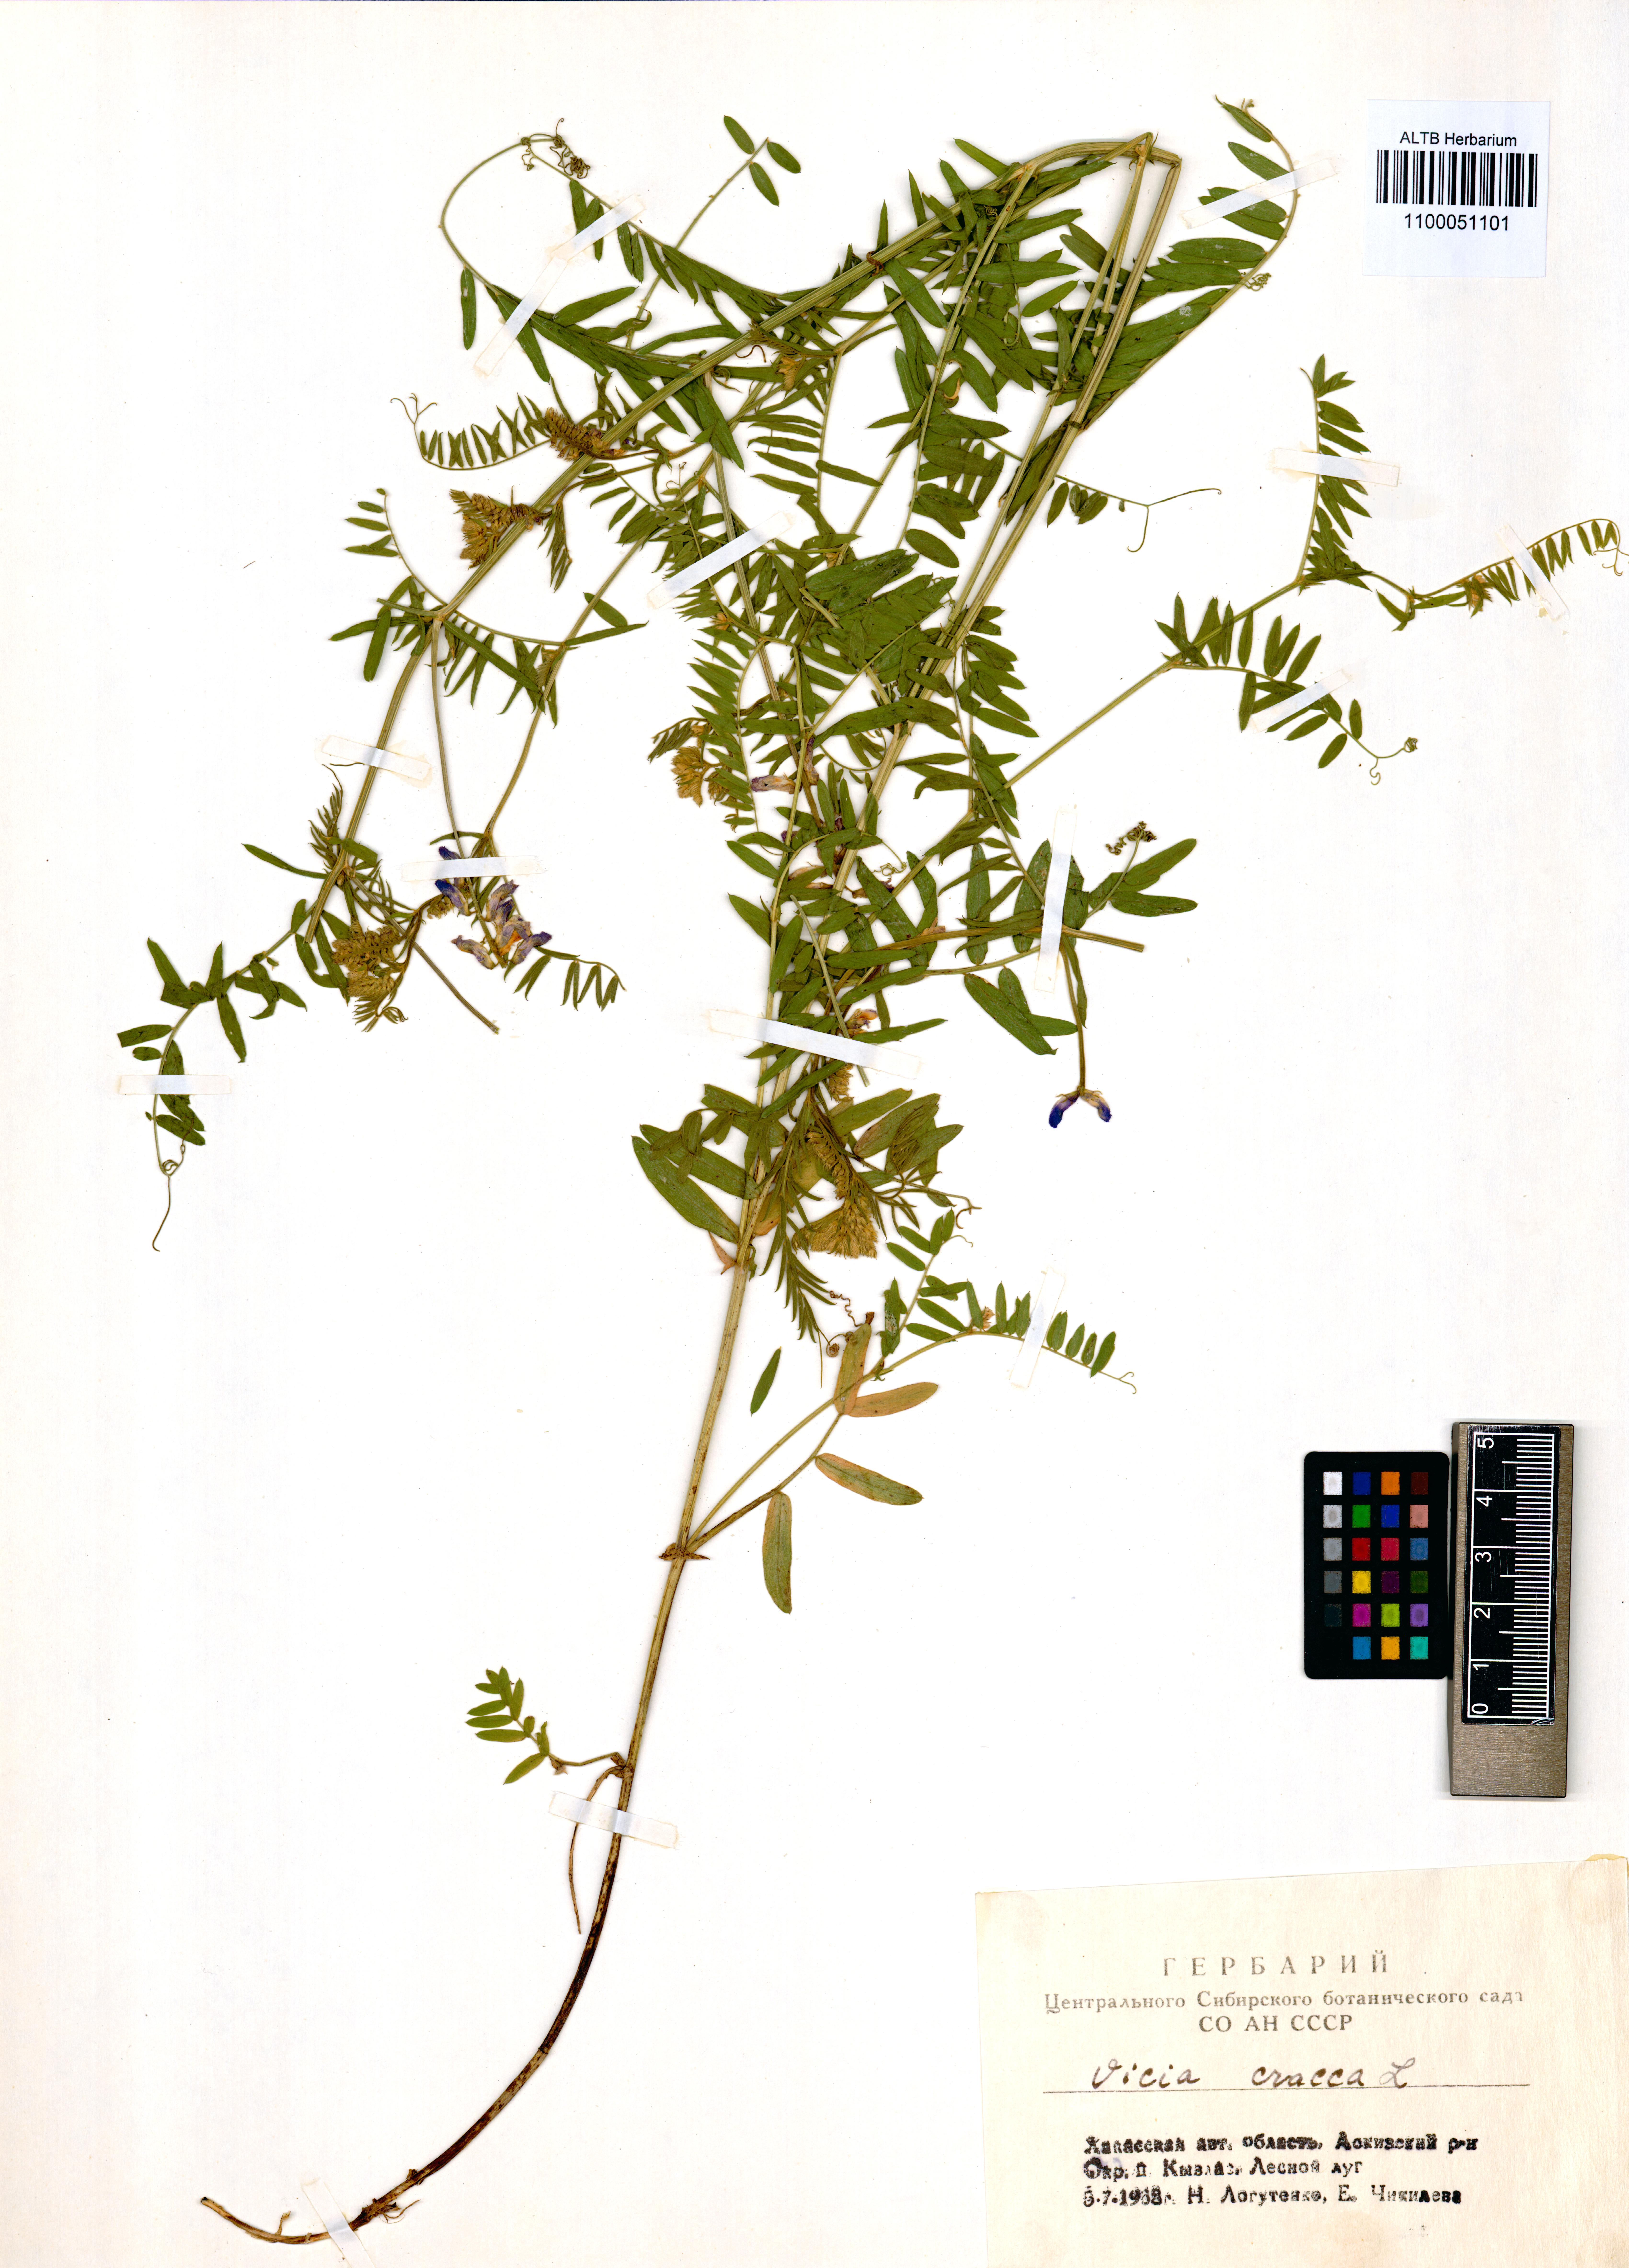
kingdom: Plantae
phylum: Tracheophyta
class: Magnoliopsida
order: Fabales
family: Fabaceae
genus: Vicia
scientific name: Vicia cracca
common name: Bird vetch
